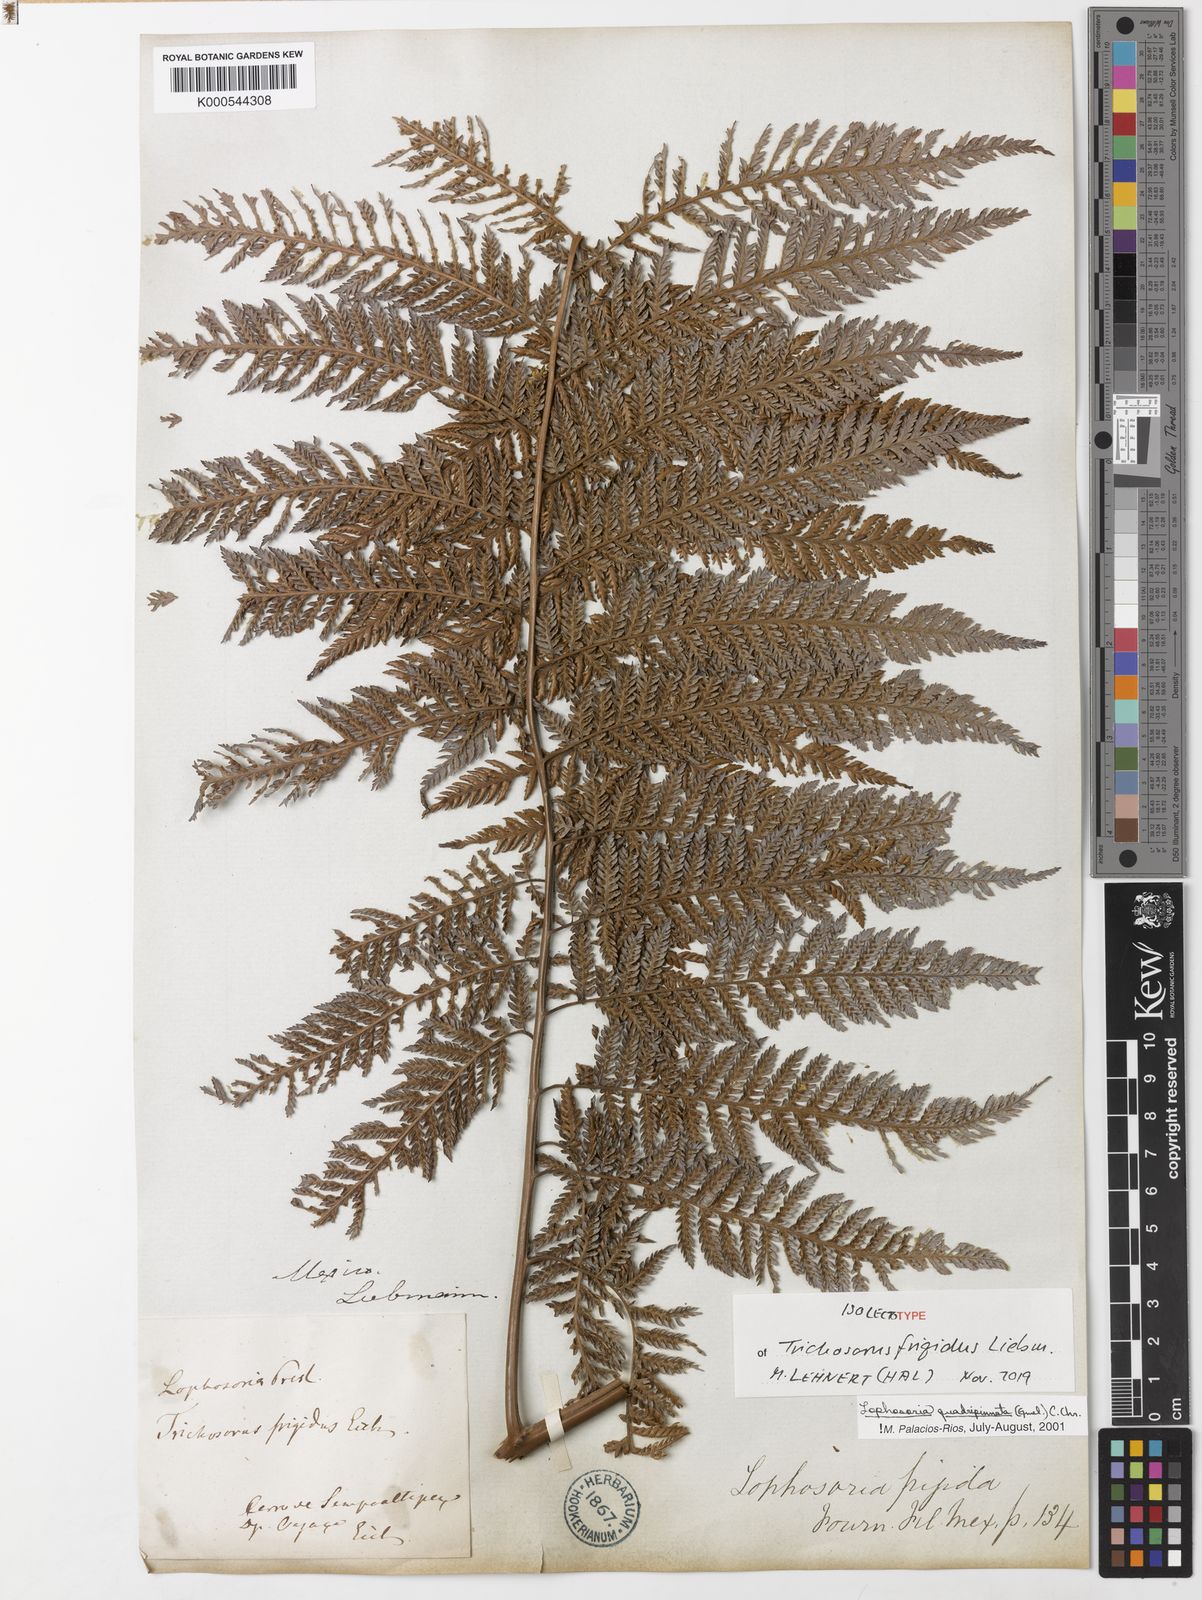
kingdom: Plantae
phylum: Tracheophyta
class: Polypodiopsida
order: Cyatheales
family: Dicksoniaceae
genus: Lophosoria
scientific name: Lophosoria quadripinnata
